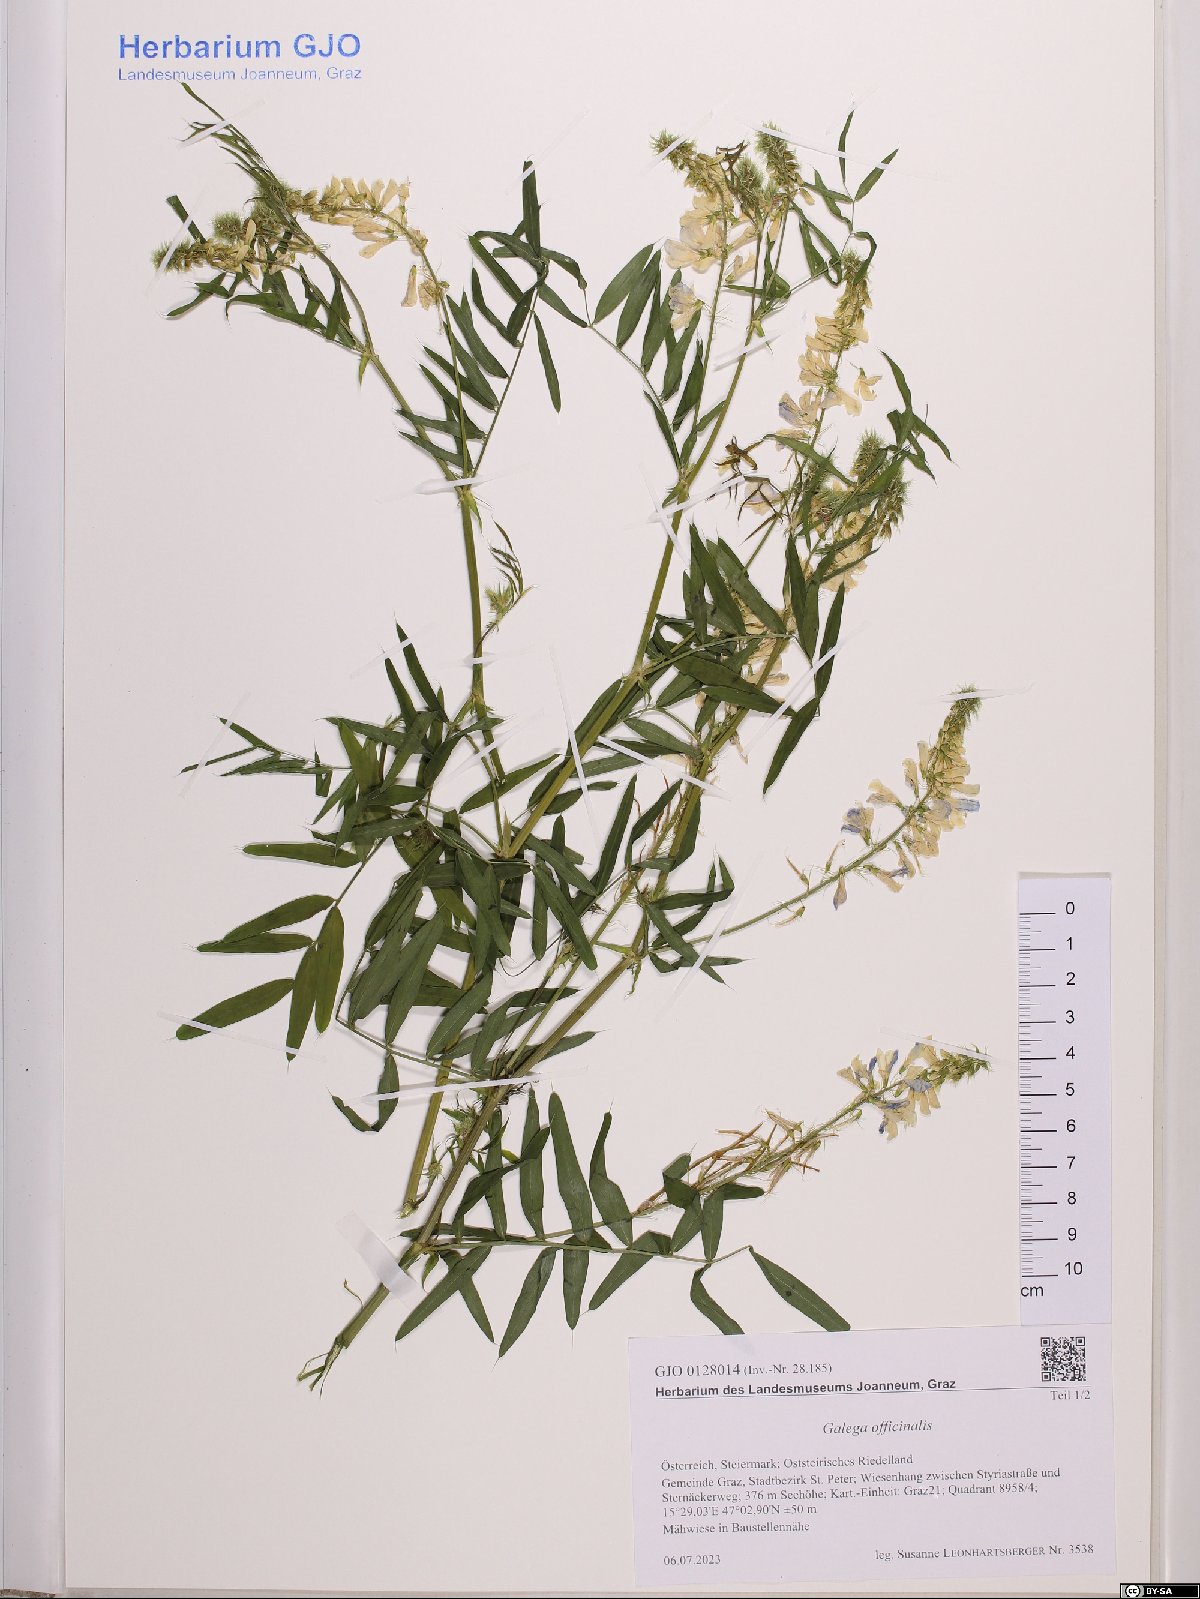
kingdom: Plantae
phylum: Tracheophyta
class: Magnoliopsida
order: Fabales
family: Fabaceae
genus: Galega
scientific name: Galega officinalis
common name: Goat's-rue
